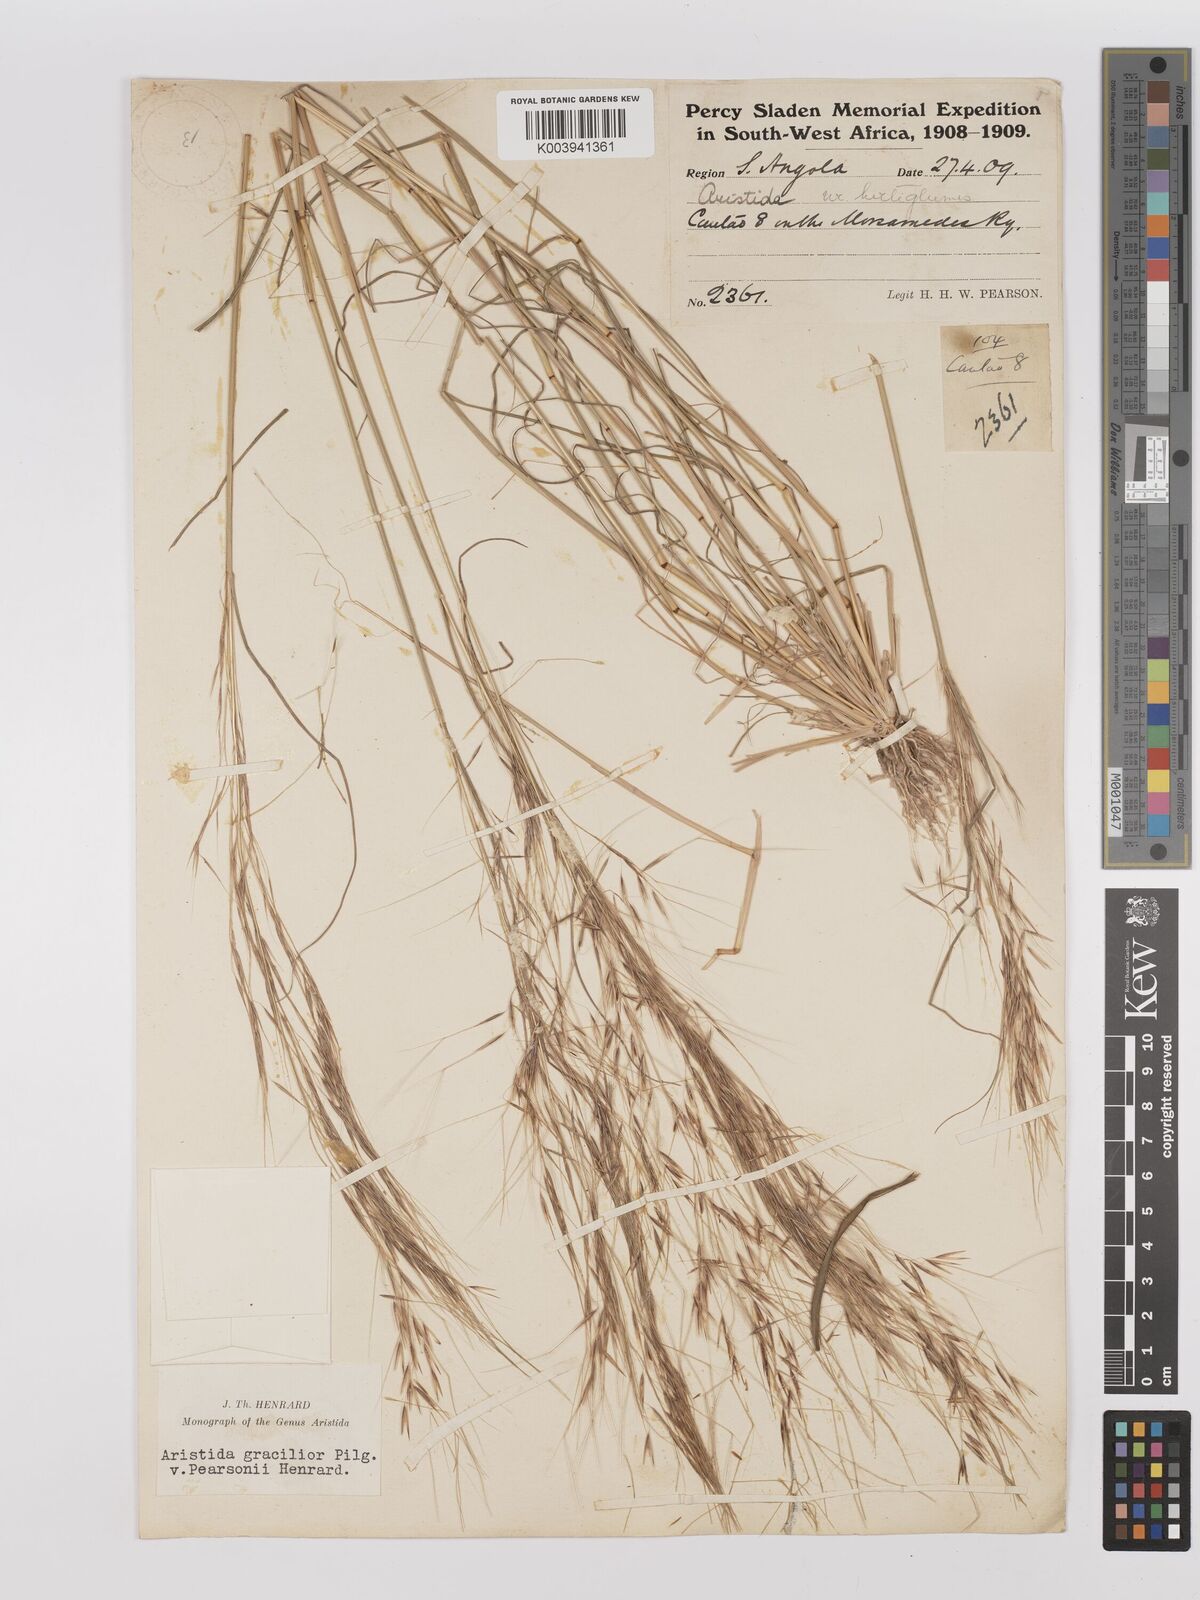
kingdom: Plantae
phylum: Tracheophyta
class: Liliopsida
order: Poales
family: Poaceae
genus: Stipagrostis
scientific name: Stipagrostis hirtigluma
